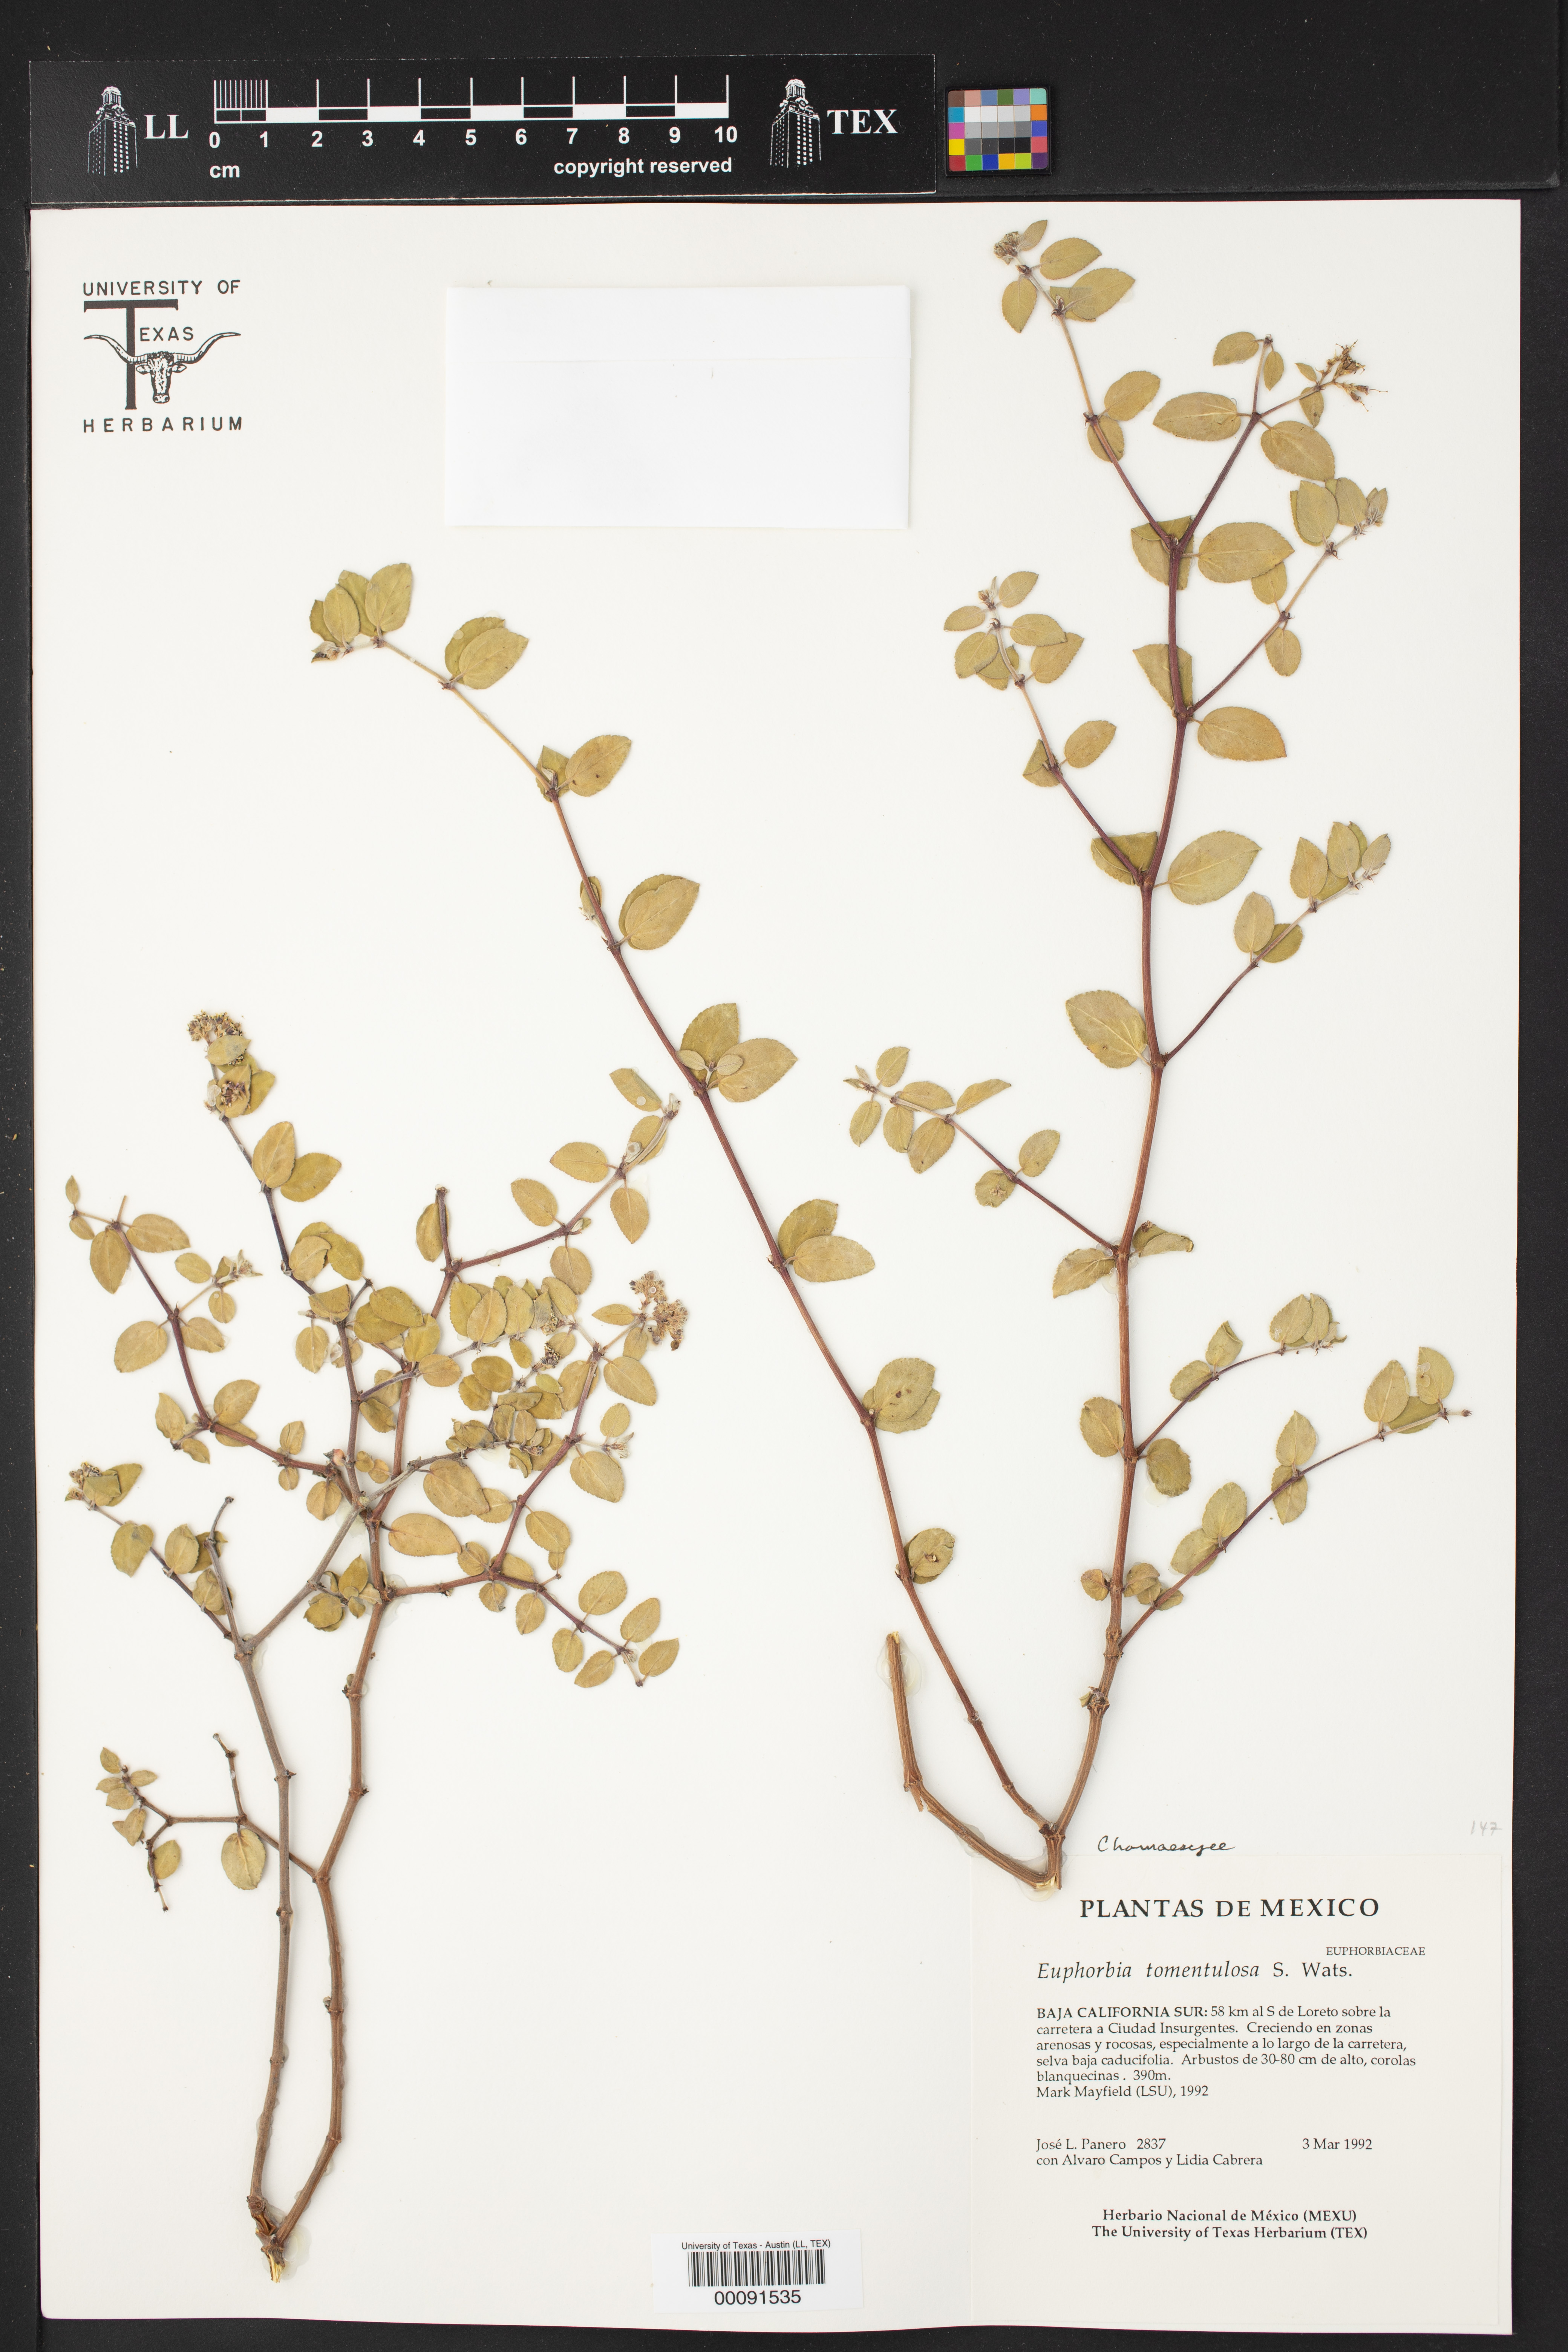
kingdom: Plantae
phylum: Tracheophyta
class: Magnoliopsida
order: Malpighiales
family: Euphorbiaceae
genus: Euphorbia
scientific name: Euphorbia tomentulosa
